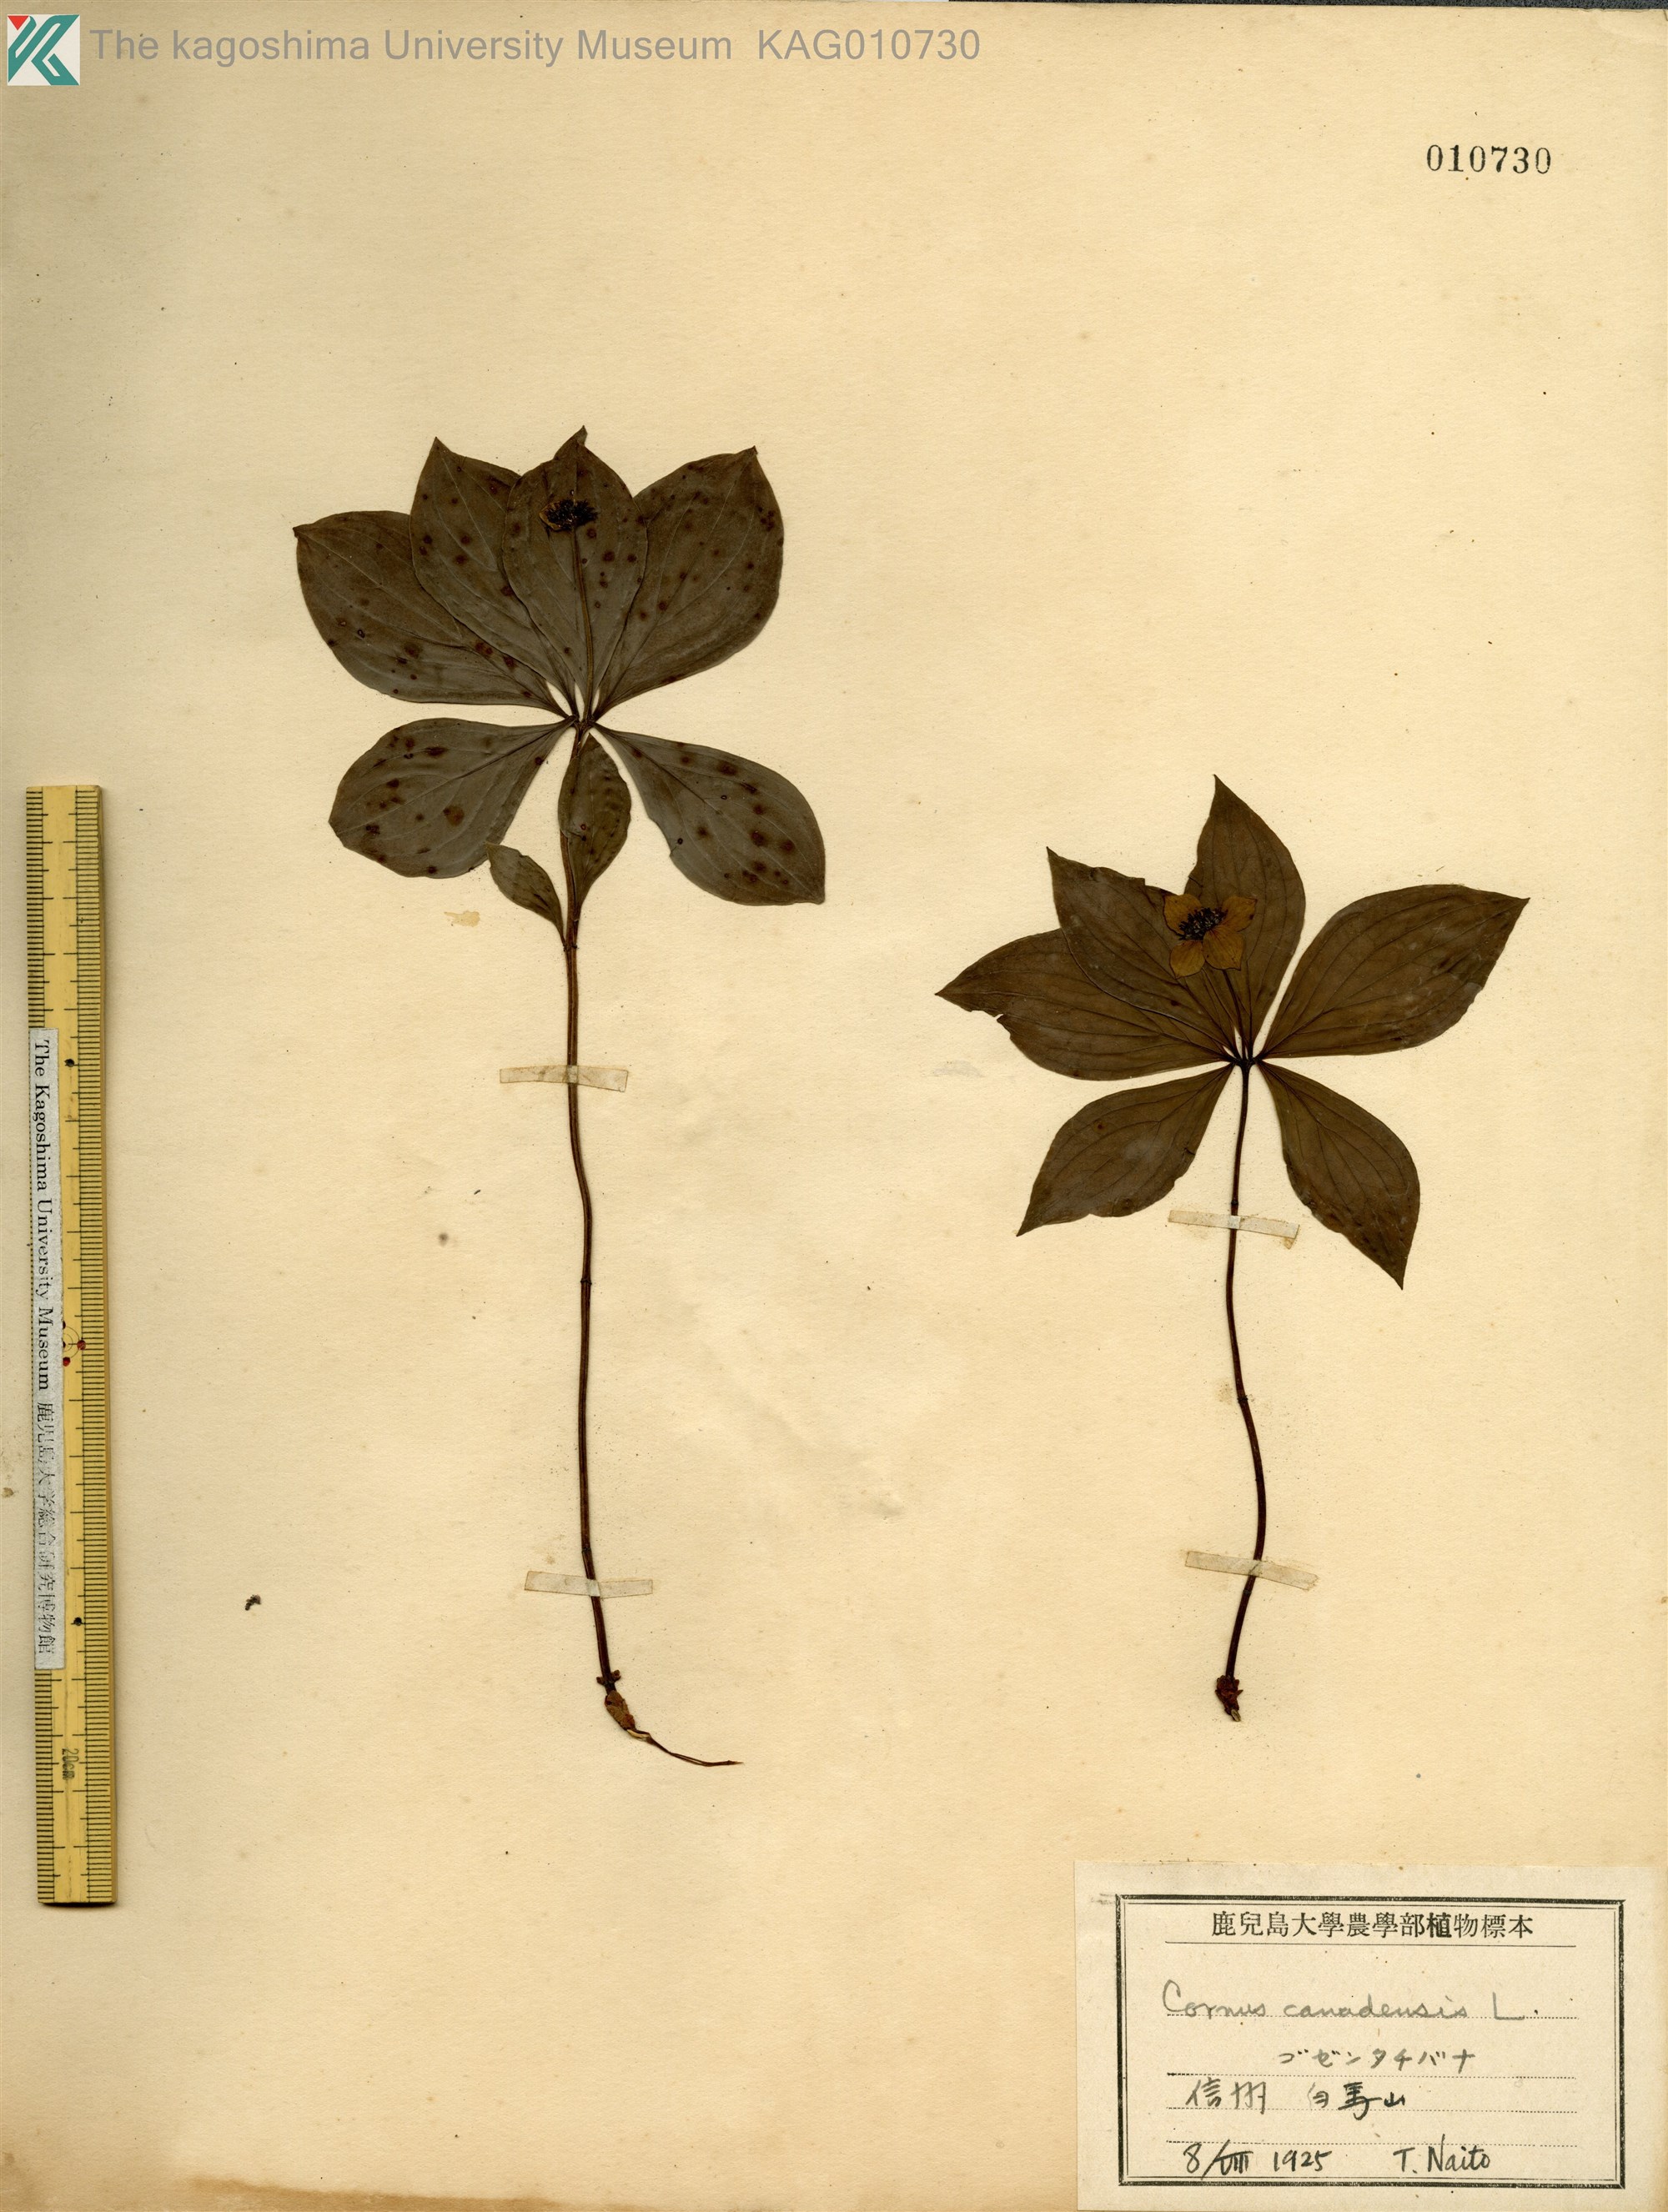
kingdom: Plantae
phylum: Tracheophyta
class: Magnoliopsida
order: Cornales
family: Cornaceae
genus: Cornus
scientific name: Cornus canadensis
